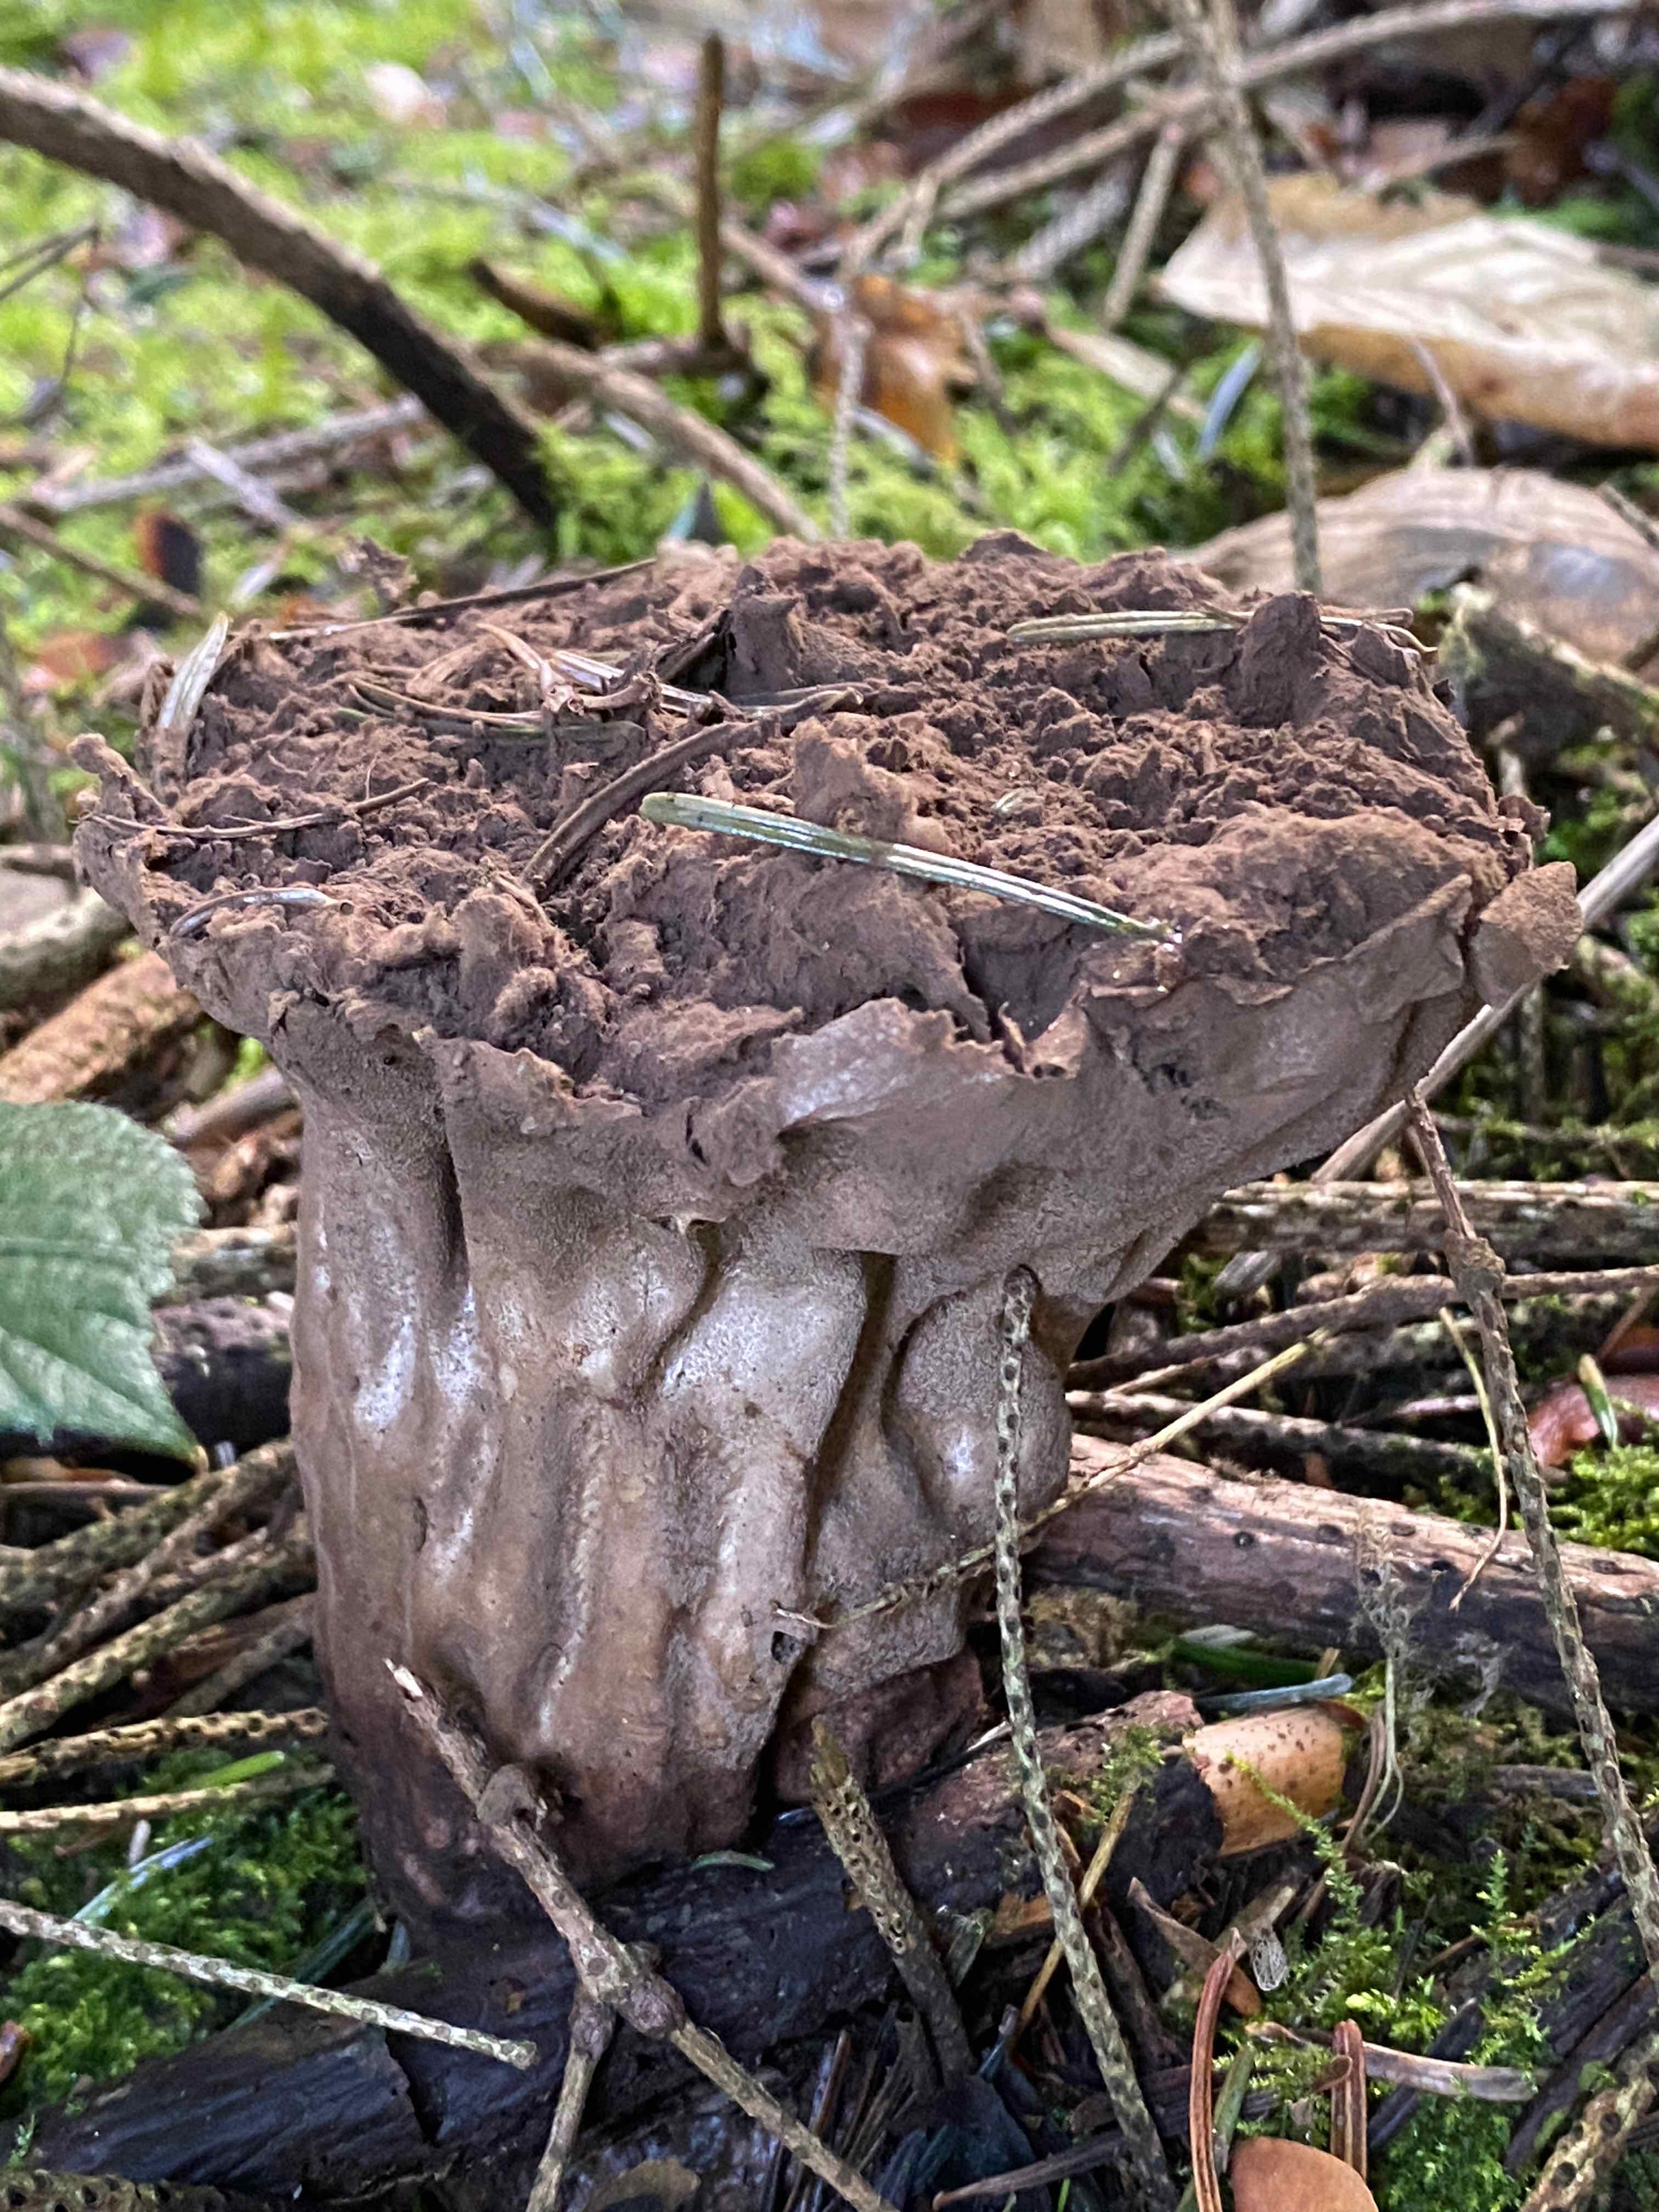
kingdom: Fungi
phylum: Basidiomycota
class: Agaricomycetes
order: Agaricales
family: Lycoperdaceae
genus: Lycoperdon
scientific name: Lycoperdon excipuliforme
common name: højstokket støvbold
